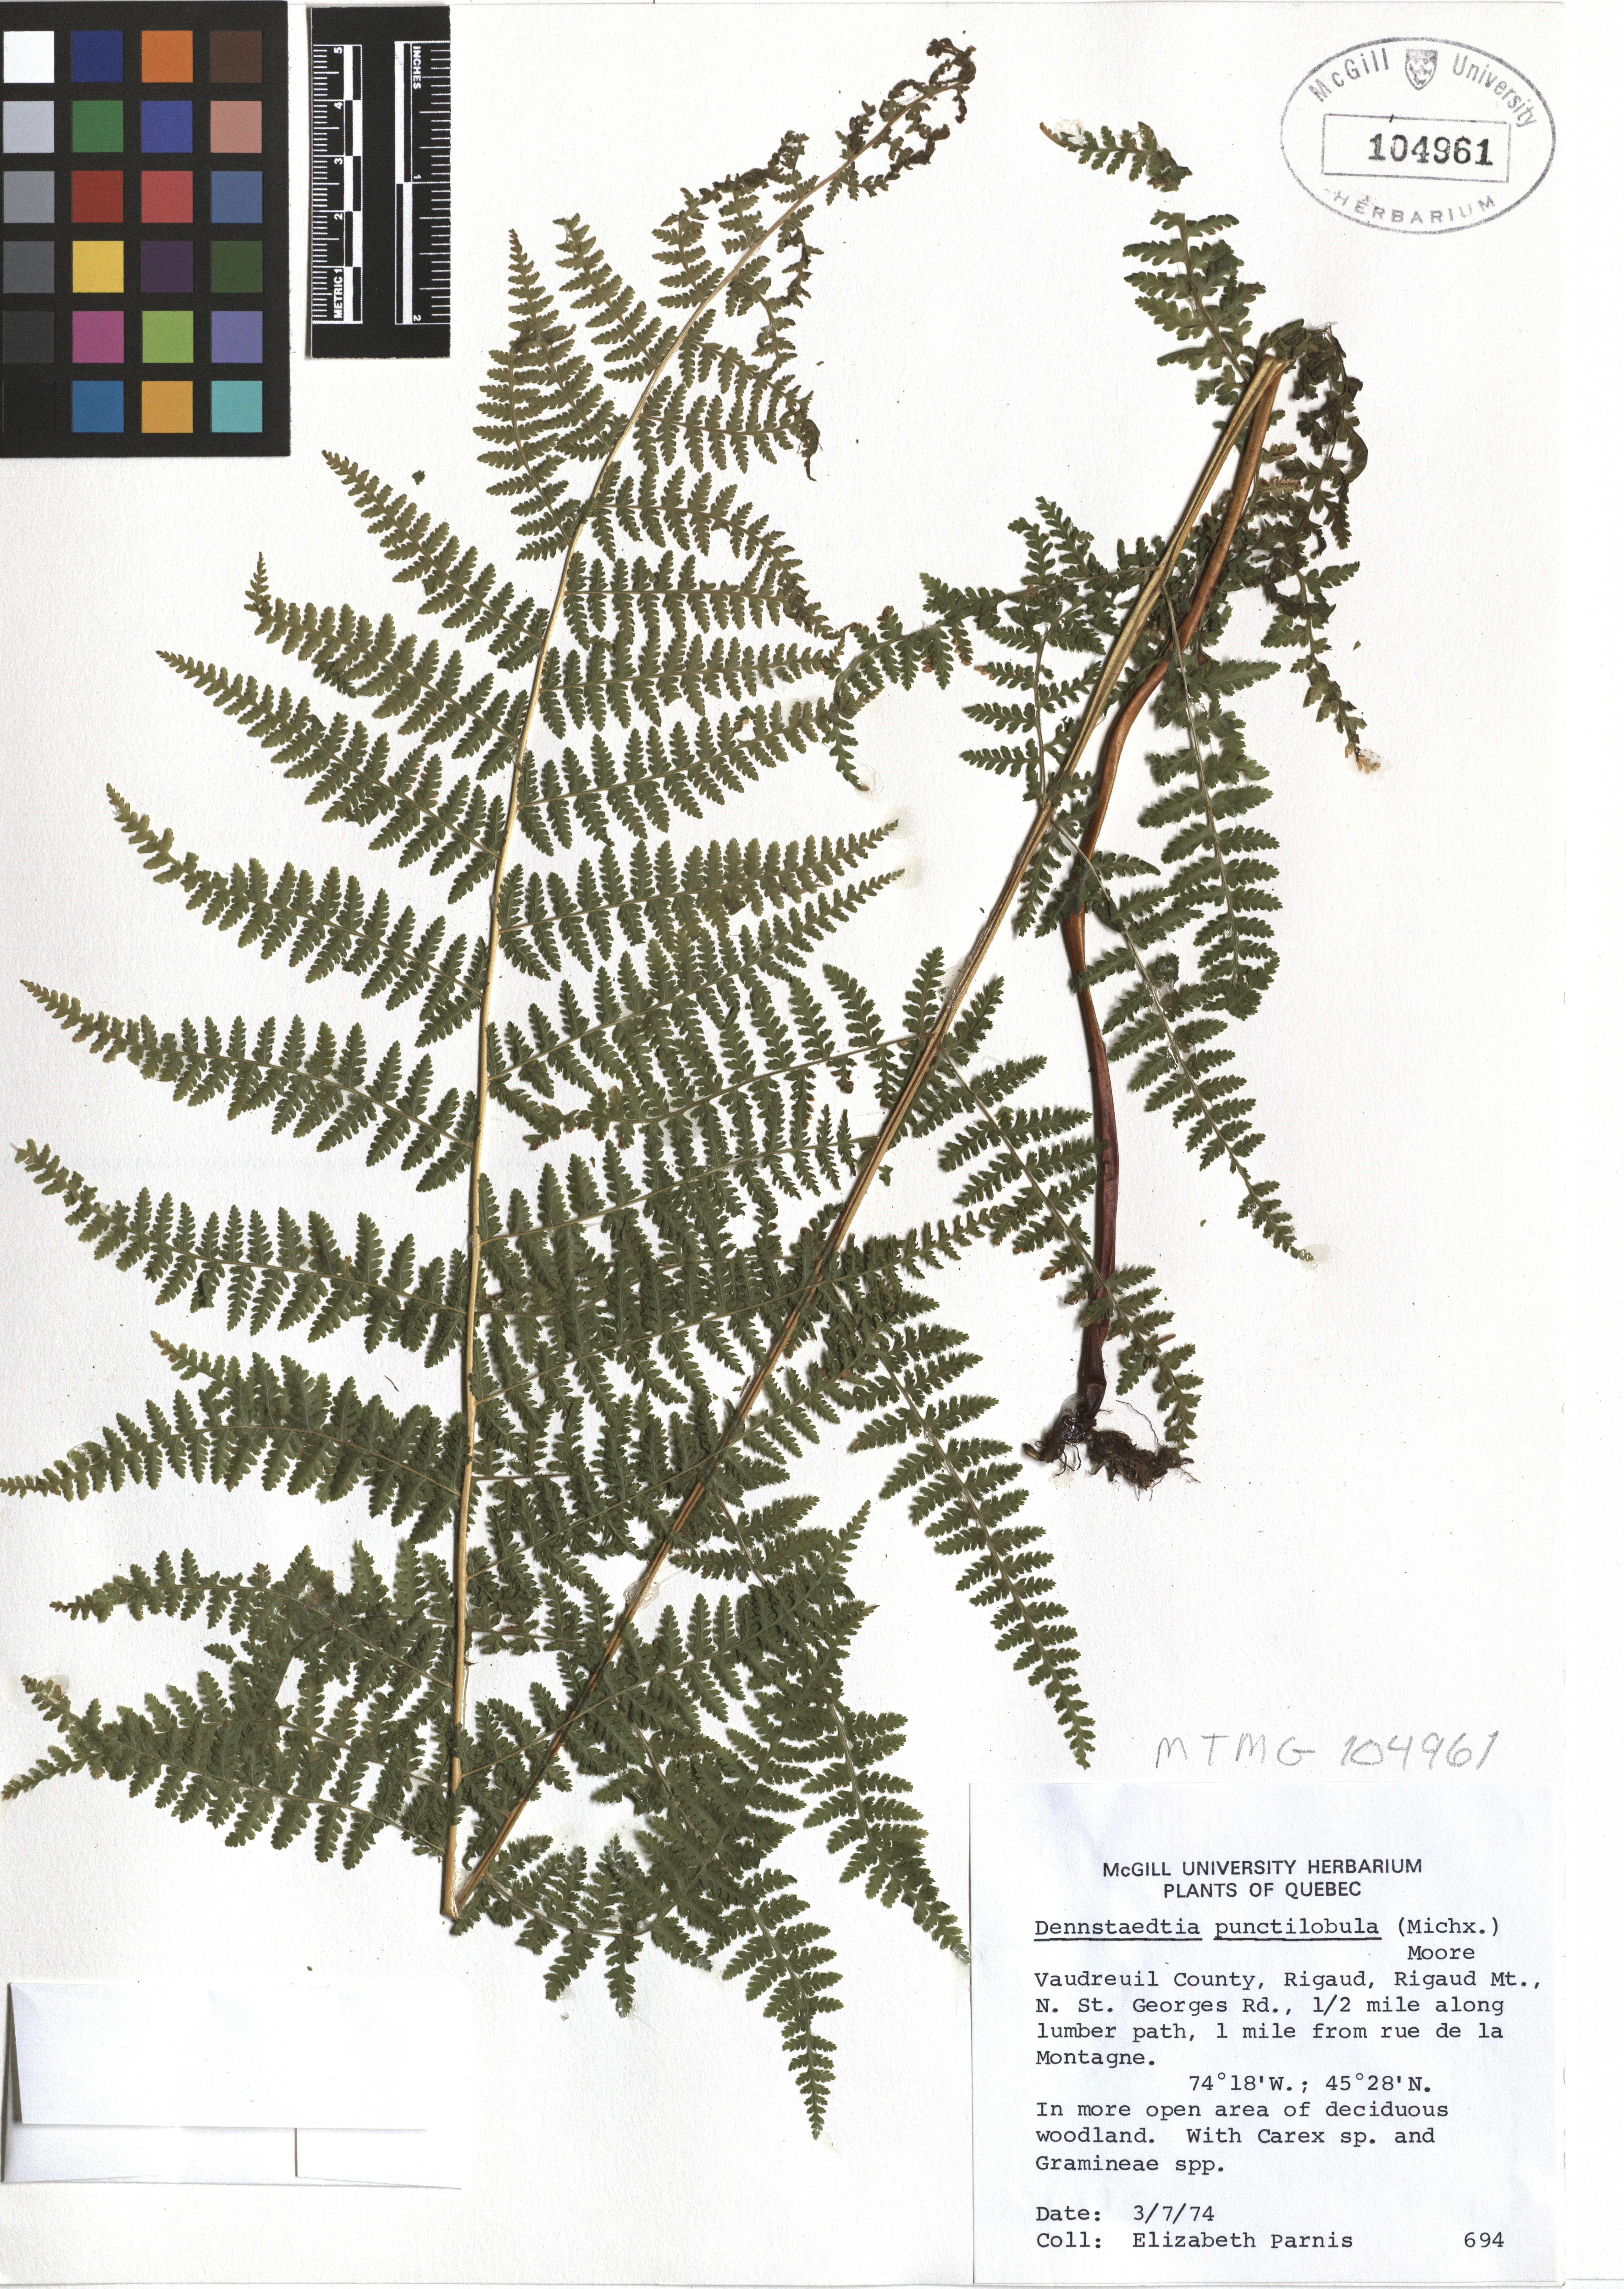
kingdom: Plantae
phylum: Tracheophyta
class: Polypodiopsida
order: Polypodiales
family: Dennstaedtiaceae
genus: Sitobolium
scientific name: Sitobolium punctilobum
